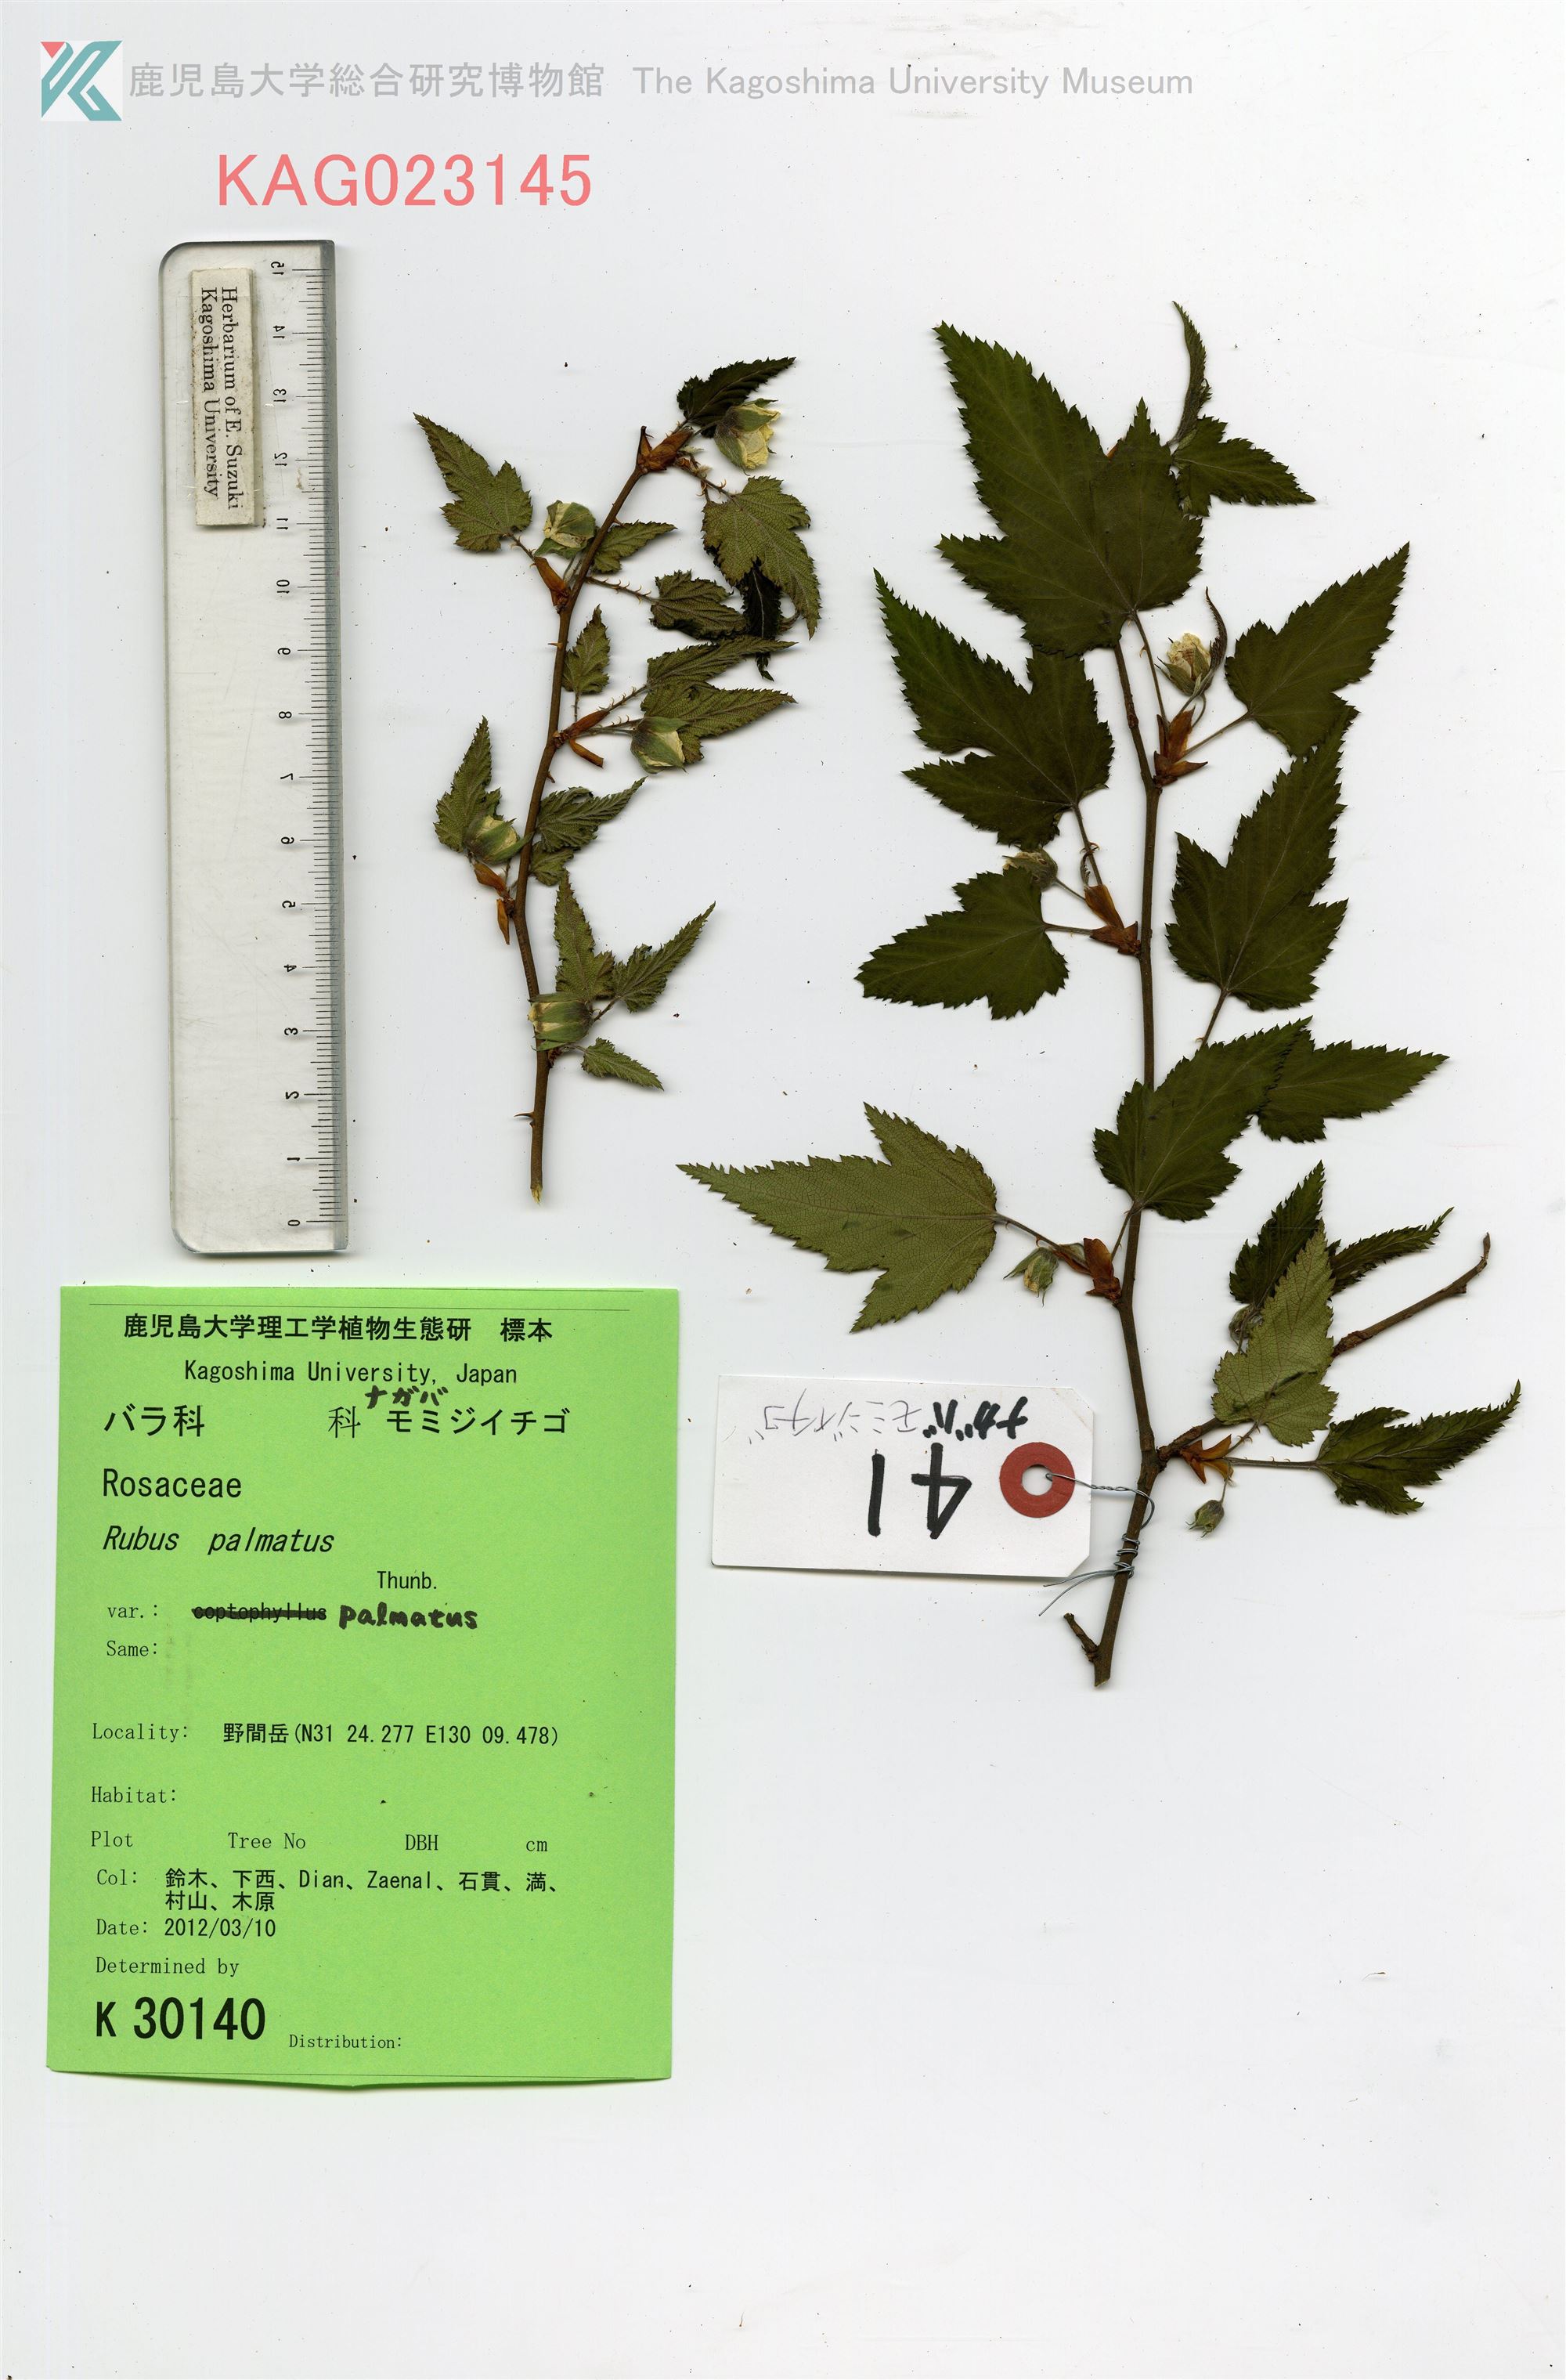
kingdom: Plantae
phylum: Tracheophyta
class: Magnoliopsida
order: Rosales
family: Rosaceae
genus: Rubus
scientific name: Rubus palmatus
